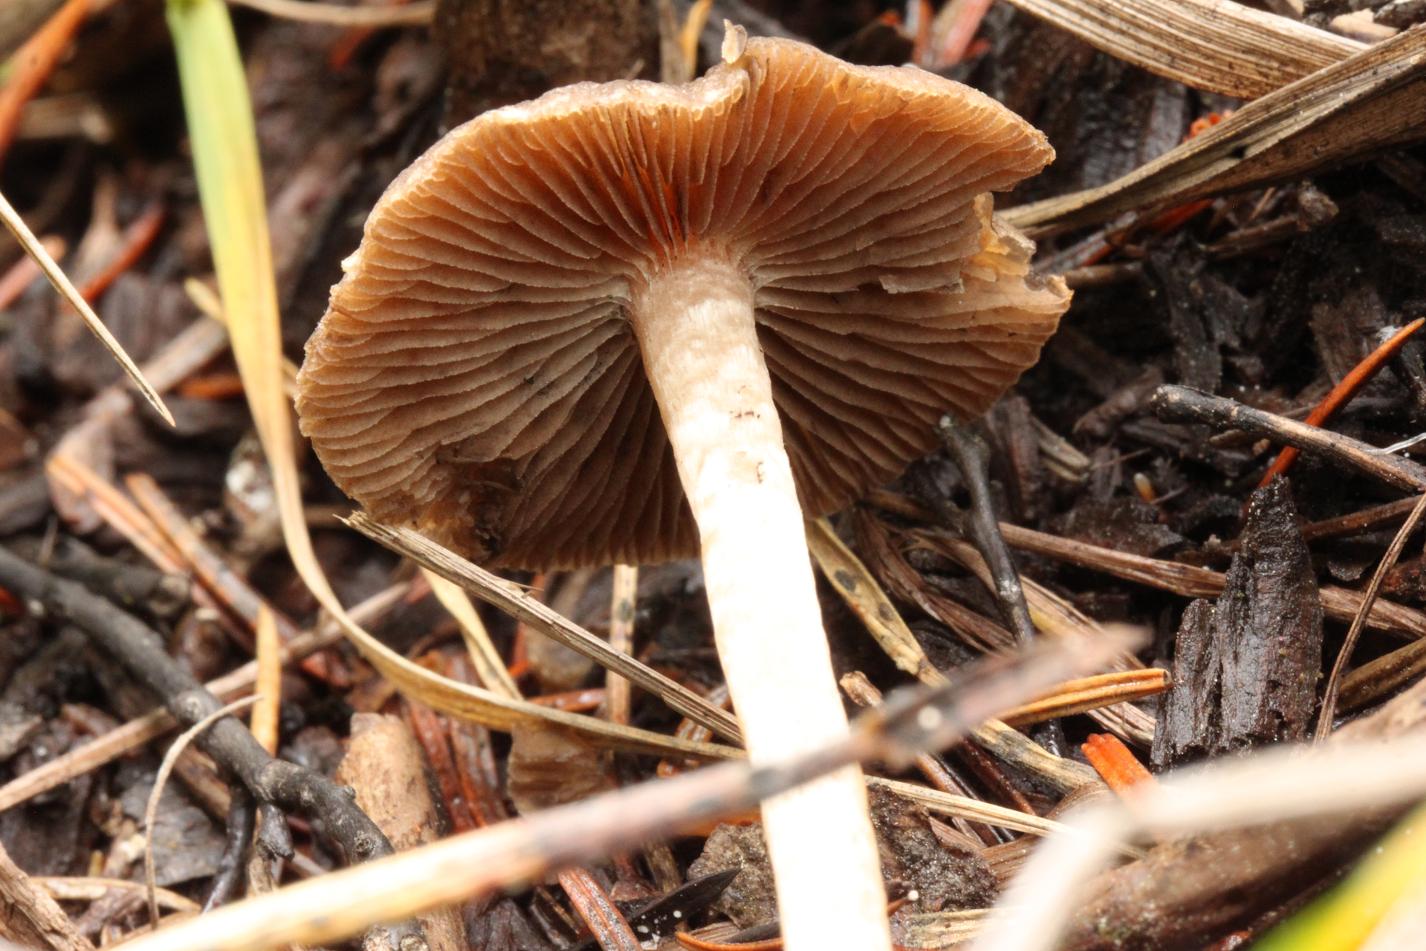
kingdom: Fungi
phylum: Basidiomycota
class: Agaricomycetes
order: Agaricales
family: Psathyrellaceae
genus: Psathyrella
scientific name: Psathyrella squamosa
